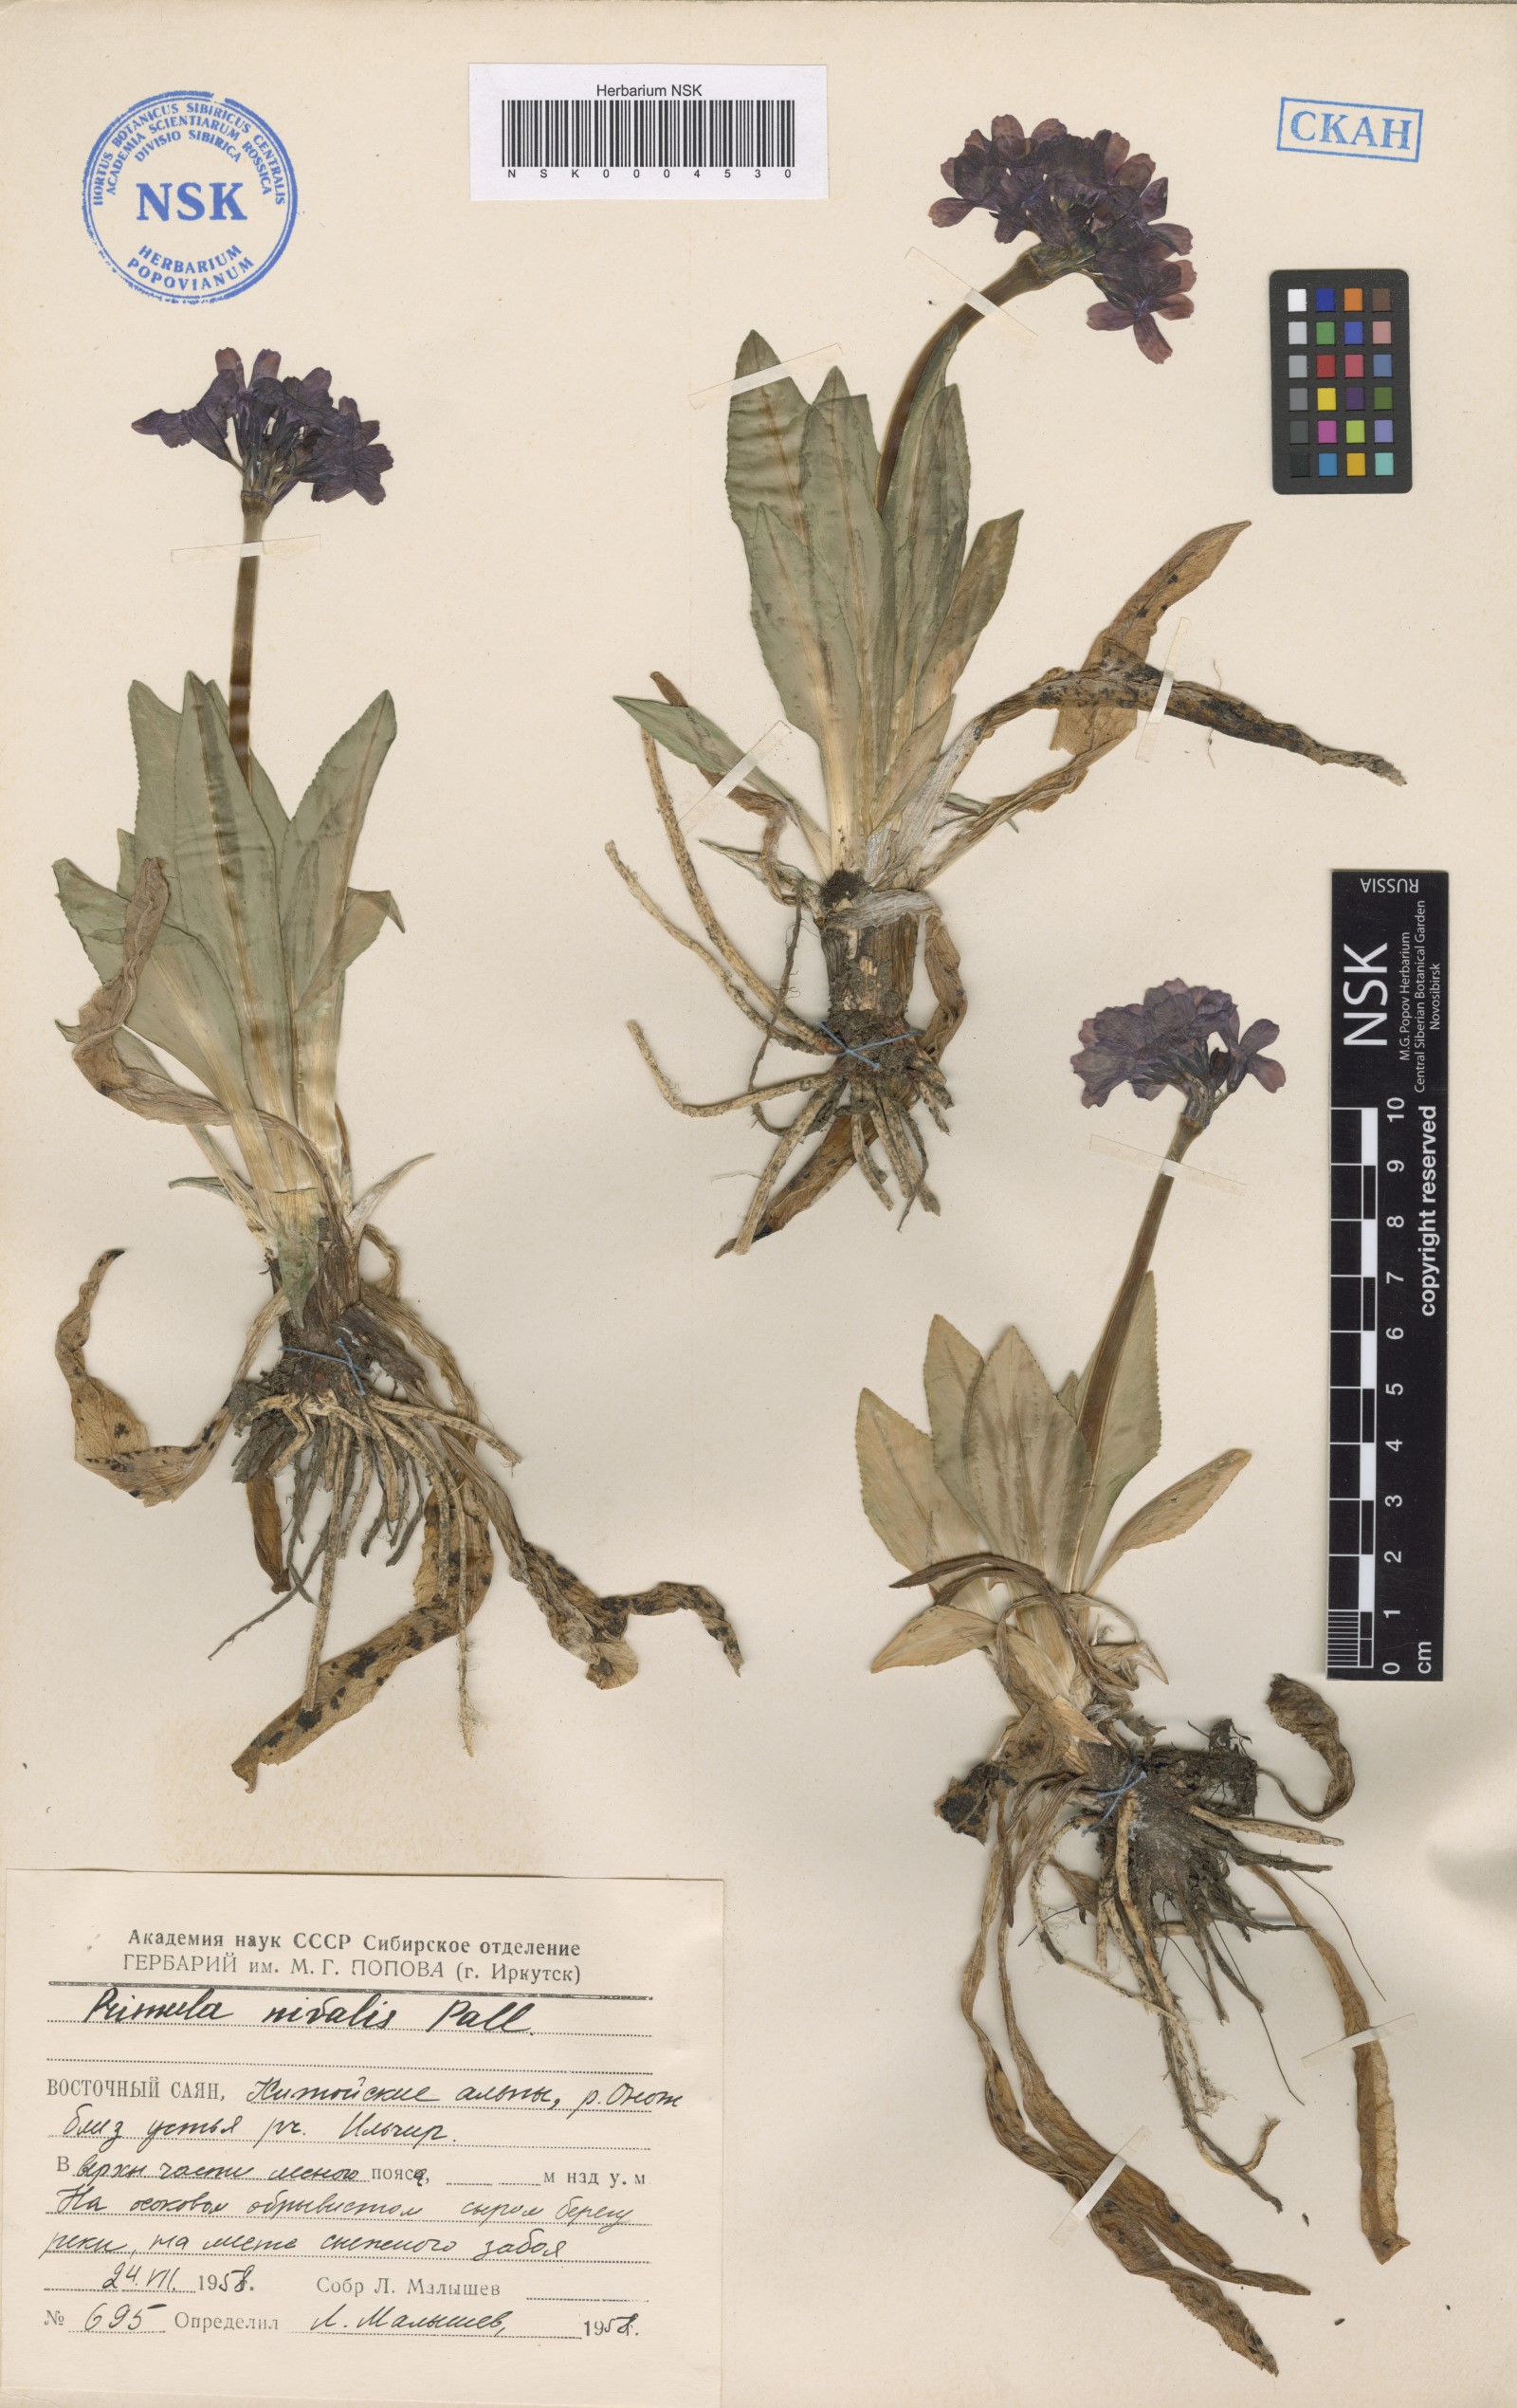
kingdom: Plantae
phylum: Tracheophyta
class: Magnoliopsida
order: Ericales
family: Primulaceae
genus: Primula
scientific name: Primula nivalis
